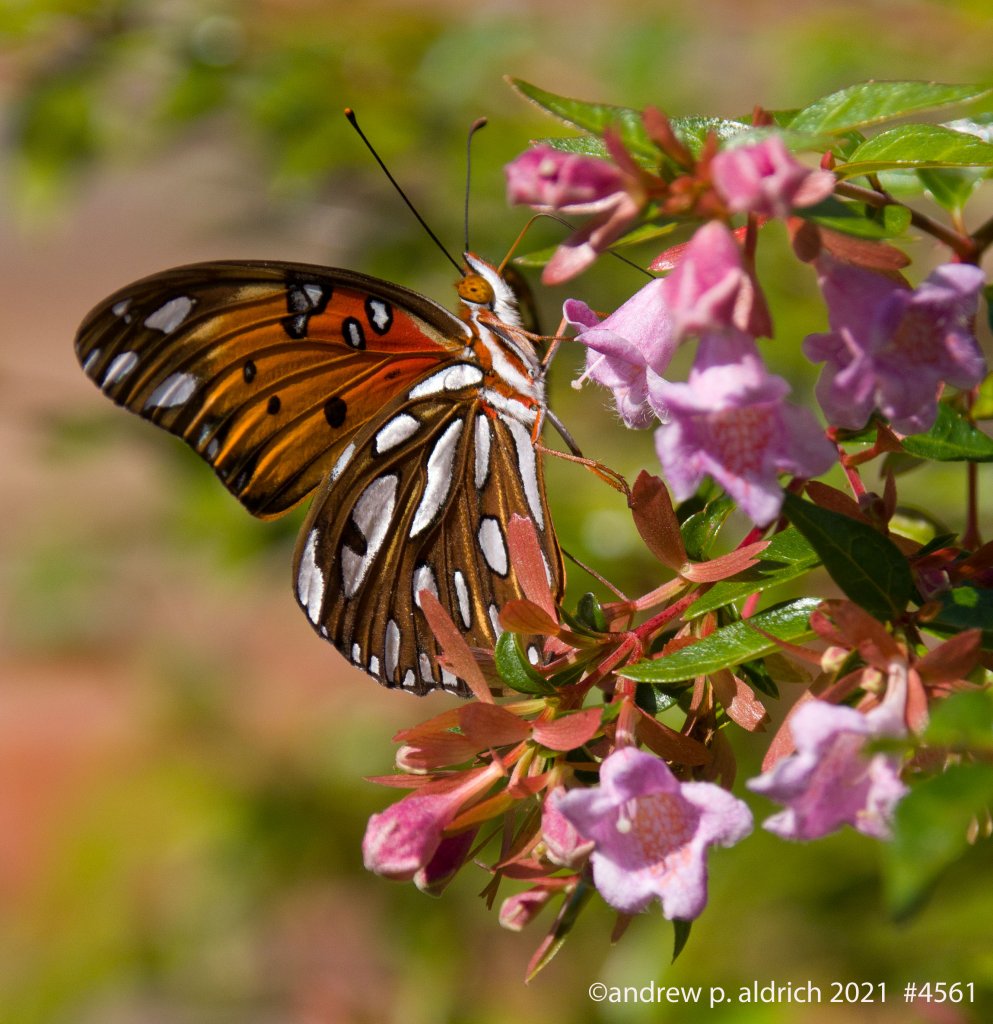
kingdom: Animalia
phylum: Arthropoda
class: Insecta
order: Lepidoptera
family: Nymphalidae
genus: Dione
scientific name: Dione vanillae
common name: Gulf Fritillary
